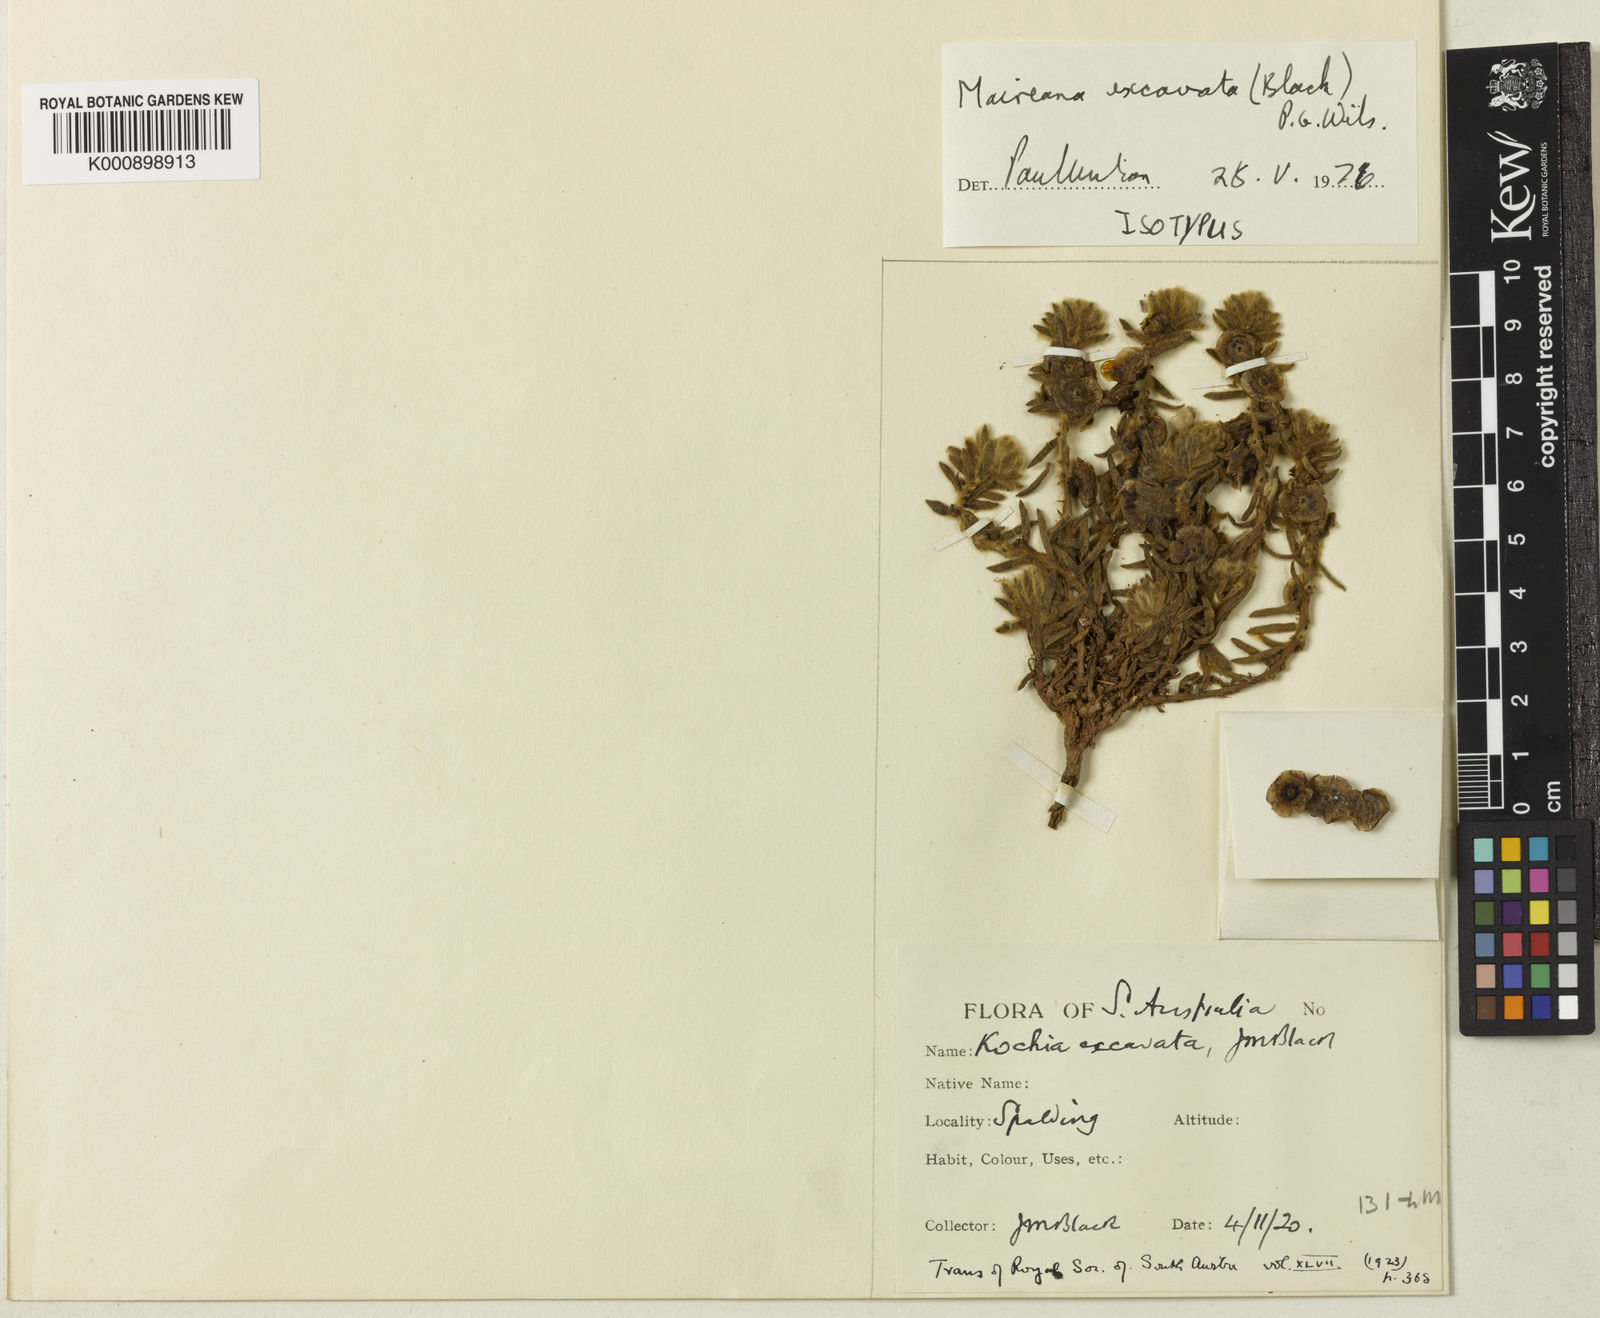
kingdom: Plantae
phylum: Tracheophyta
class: Magnoliopsida
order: Caryophyllales
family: Amaranthaceae
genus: Maireana
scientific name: Maireana excavata
